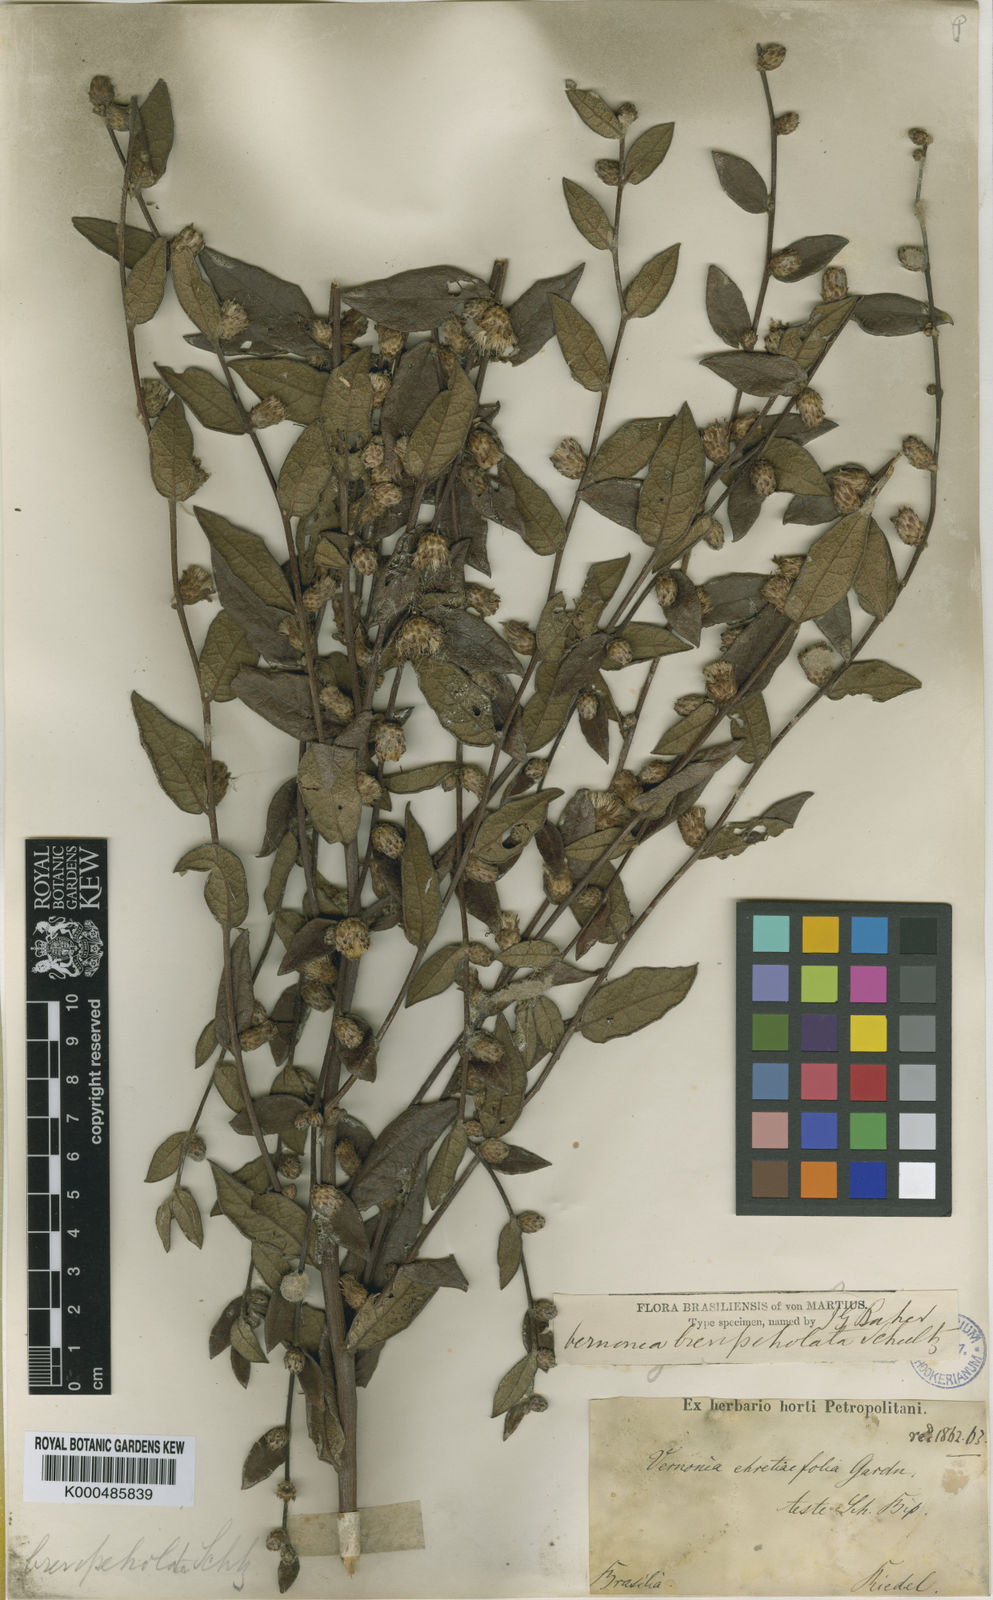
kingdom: Plantae
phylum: Tracheophyta
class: Magnoliopsida
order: Asterales
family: Asteraceae
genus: Lessingianthus
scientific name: Lessingianthus brevipetiolatus
